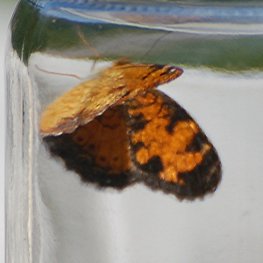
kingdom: Animalia
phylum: Arthropoda
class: Insecta
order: Lepidoptera
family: Nymphalidae
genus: Phyciodes
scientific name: Phyciodes tharos
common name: Northern Crescent
